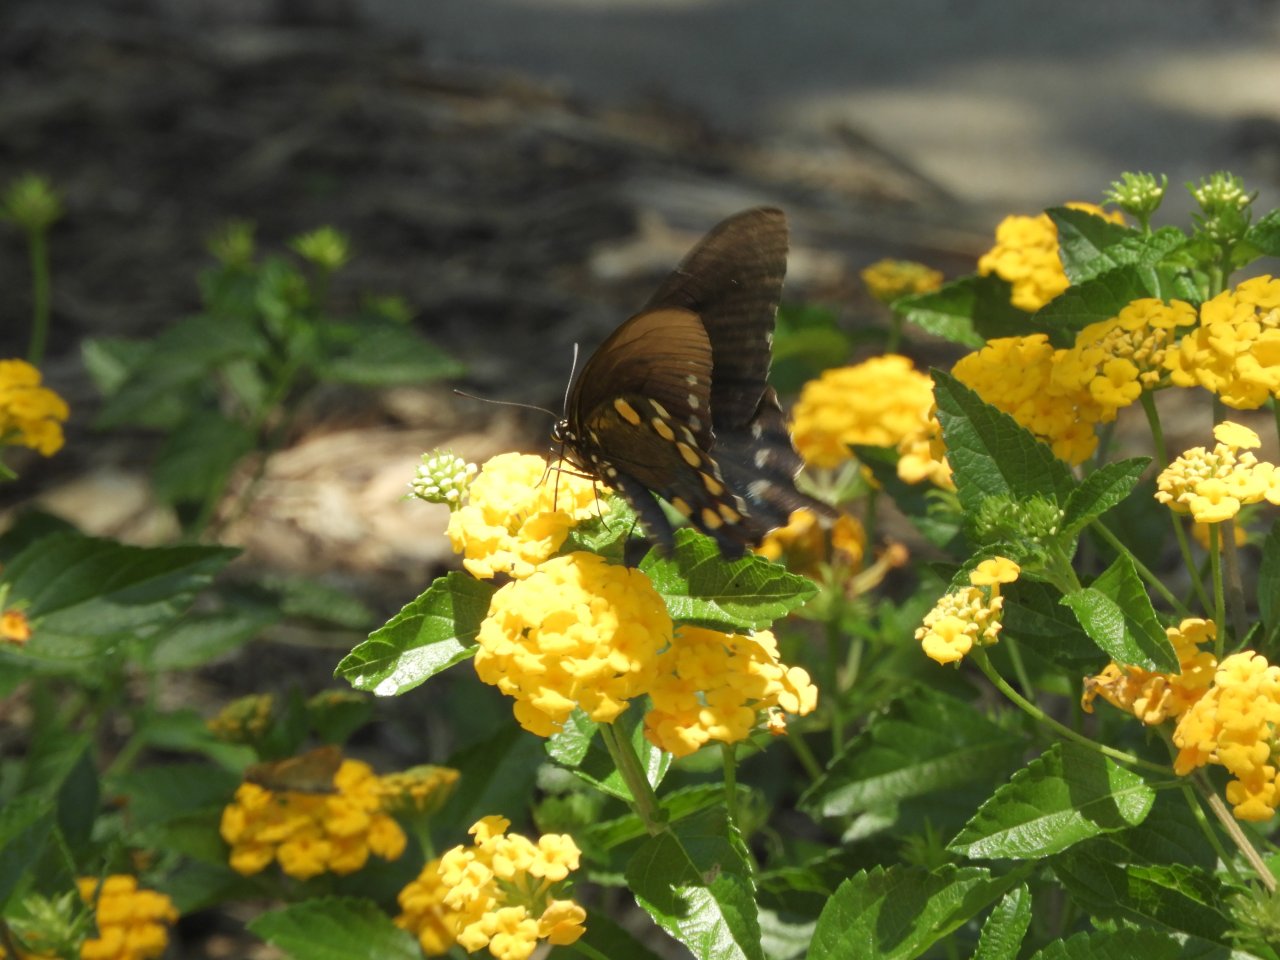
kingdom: Animalia
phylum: Arthropoda
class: Insecta
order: Lepidoptera
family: Papilionidae
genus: Battus
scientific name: Battus philenor
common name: Pipevine Swallowtail
